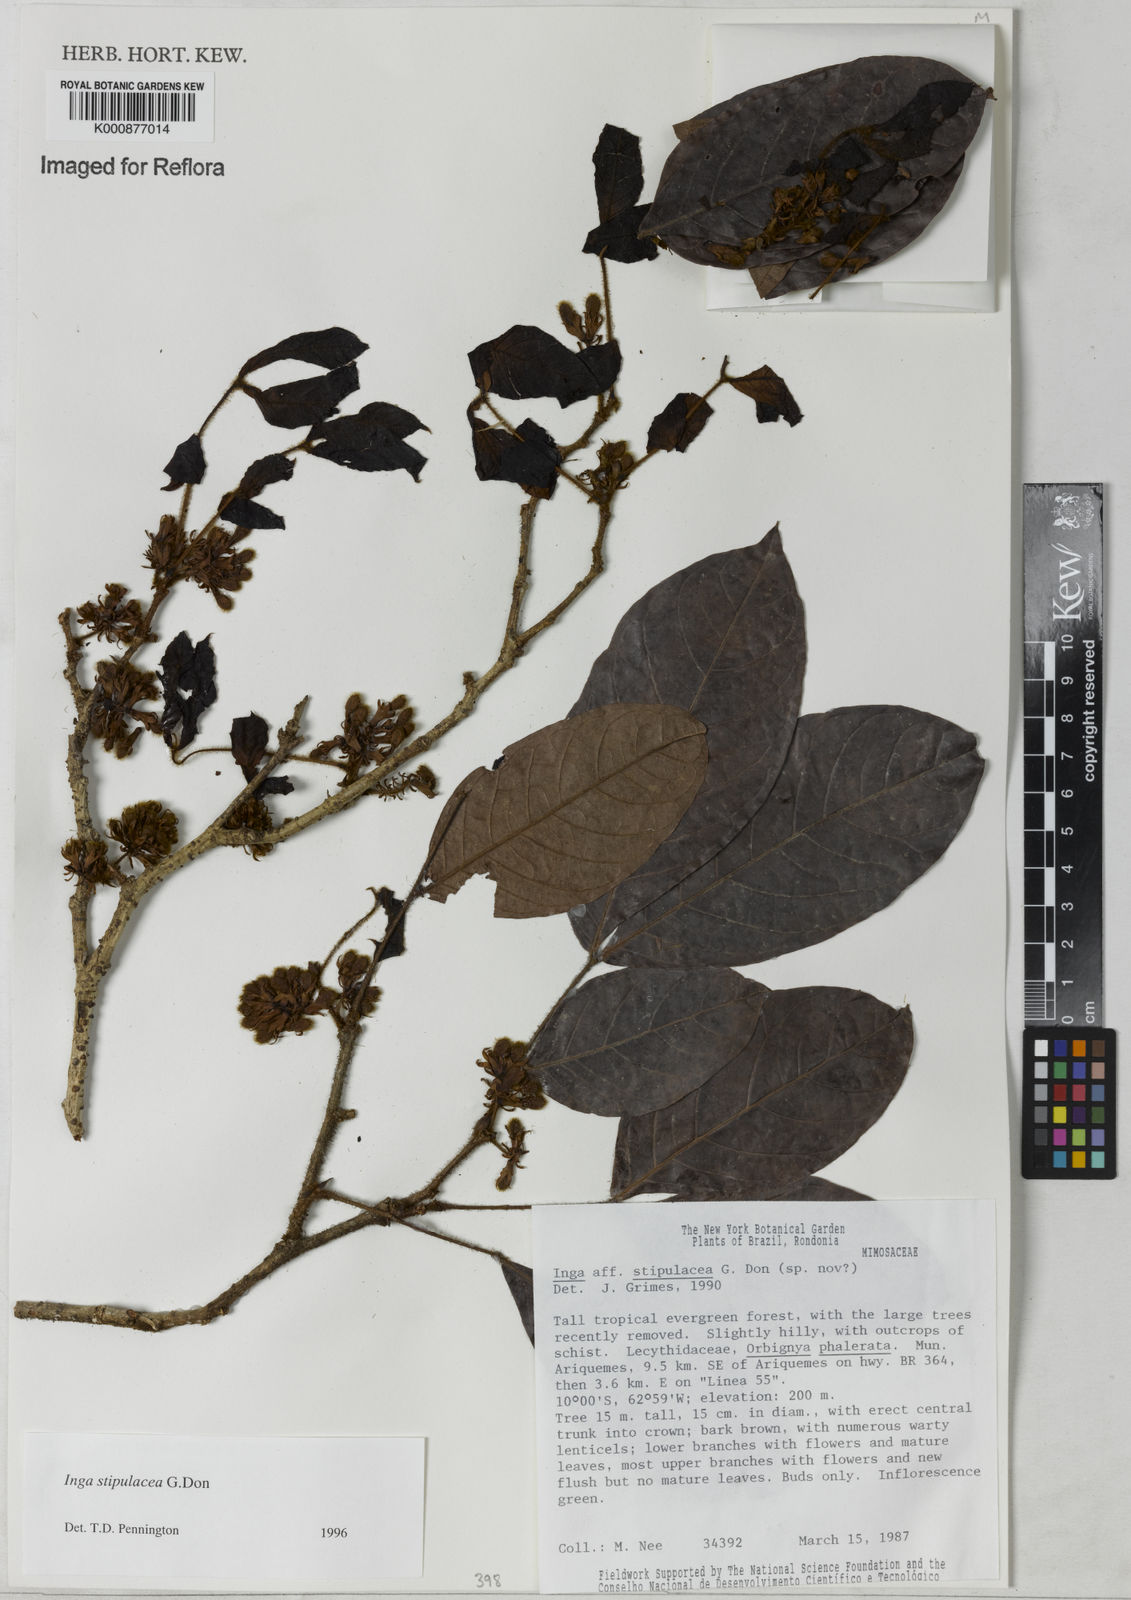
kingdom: Plantae
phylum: Tracheophyta
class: Magnoliopsida
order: Fabales
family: Fabaceae
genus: Inga
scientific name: Inga stipulacea
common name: Stipulate inga
